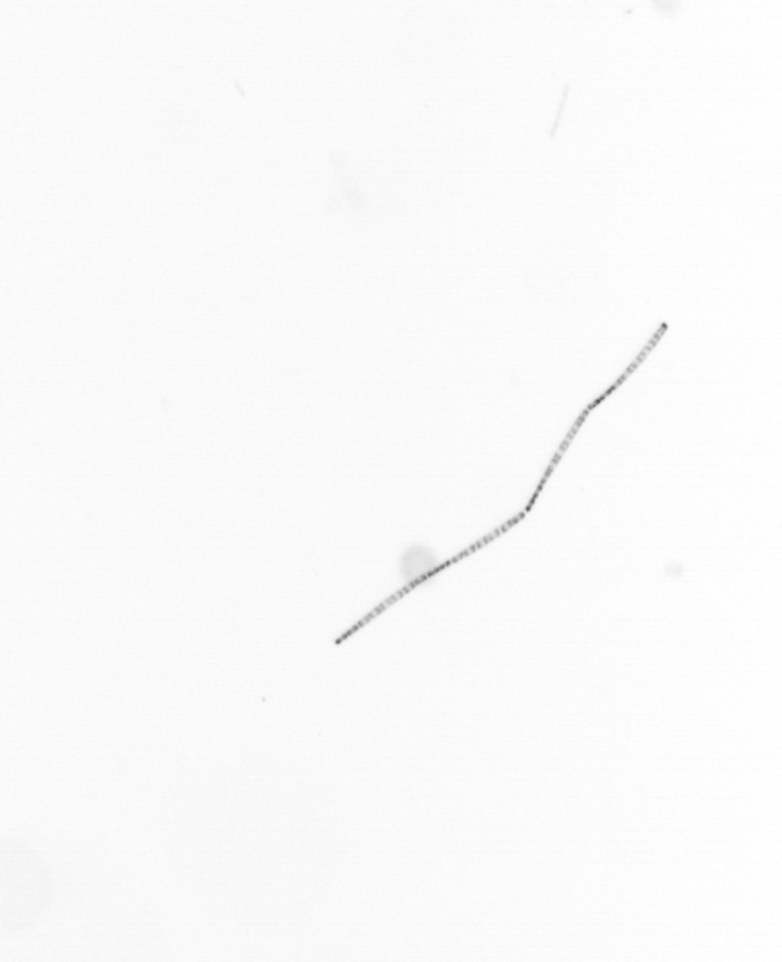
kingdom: Chromista
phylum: Ochrophyta
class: Bacillariophyceae
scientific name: Bacillariophyceae
